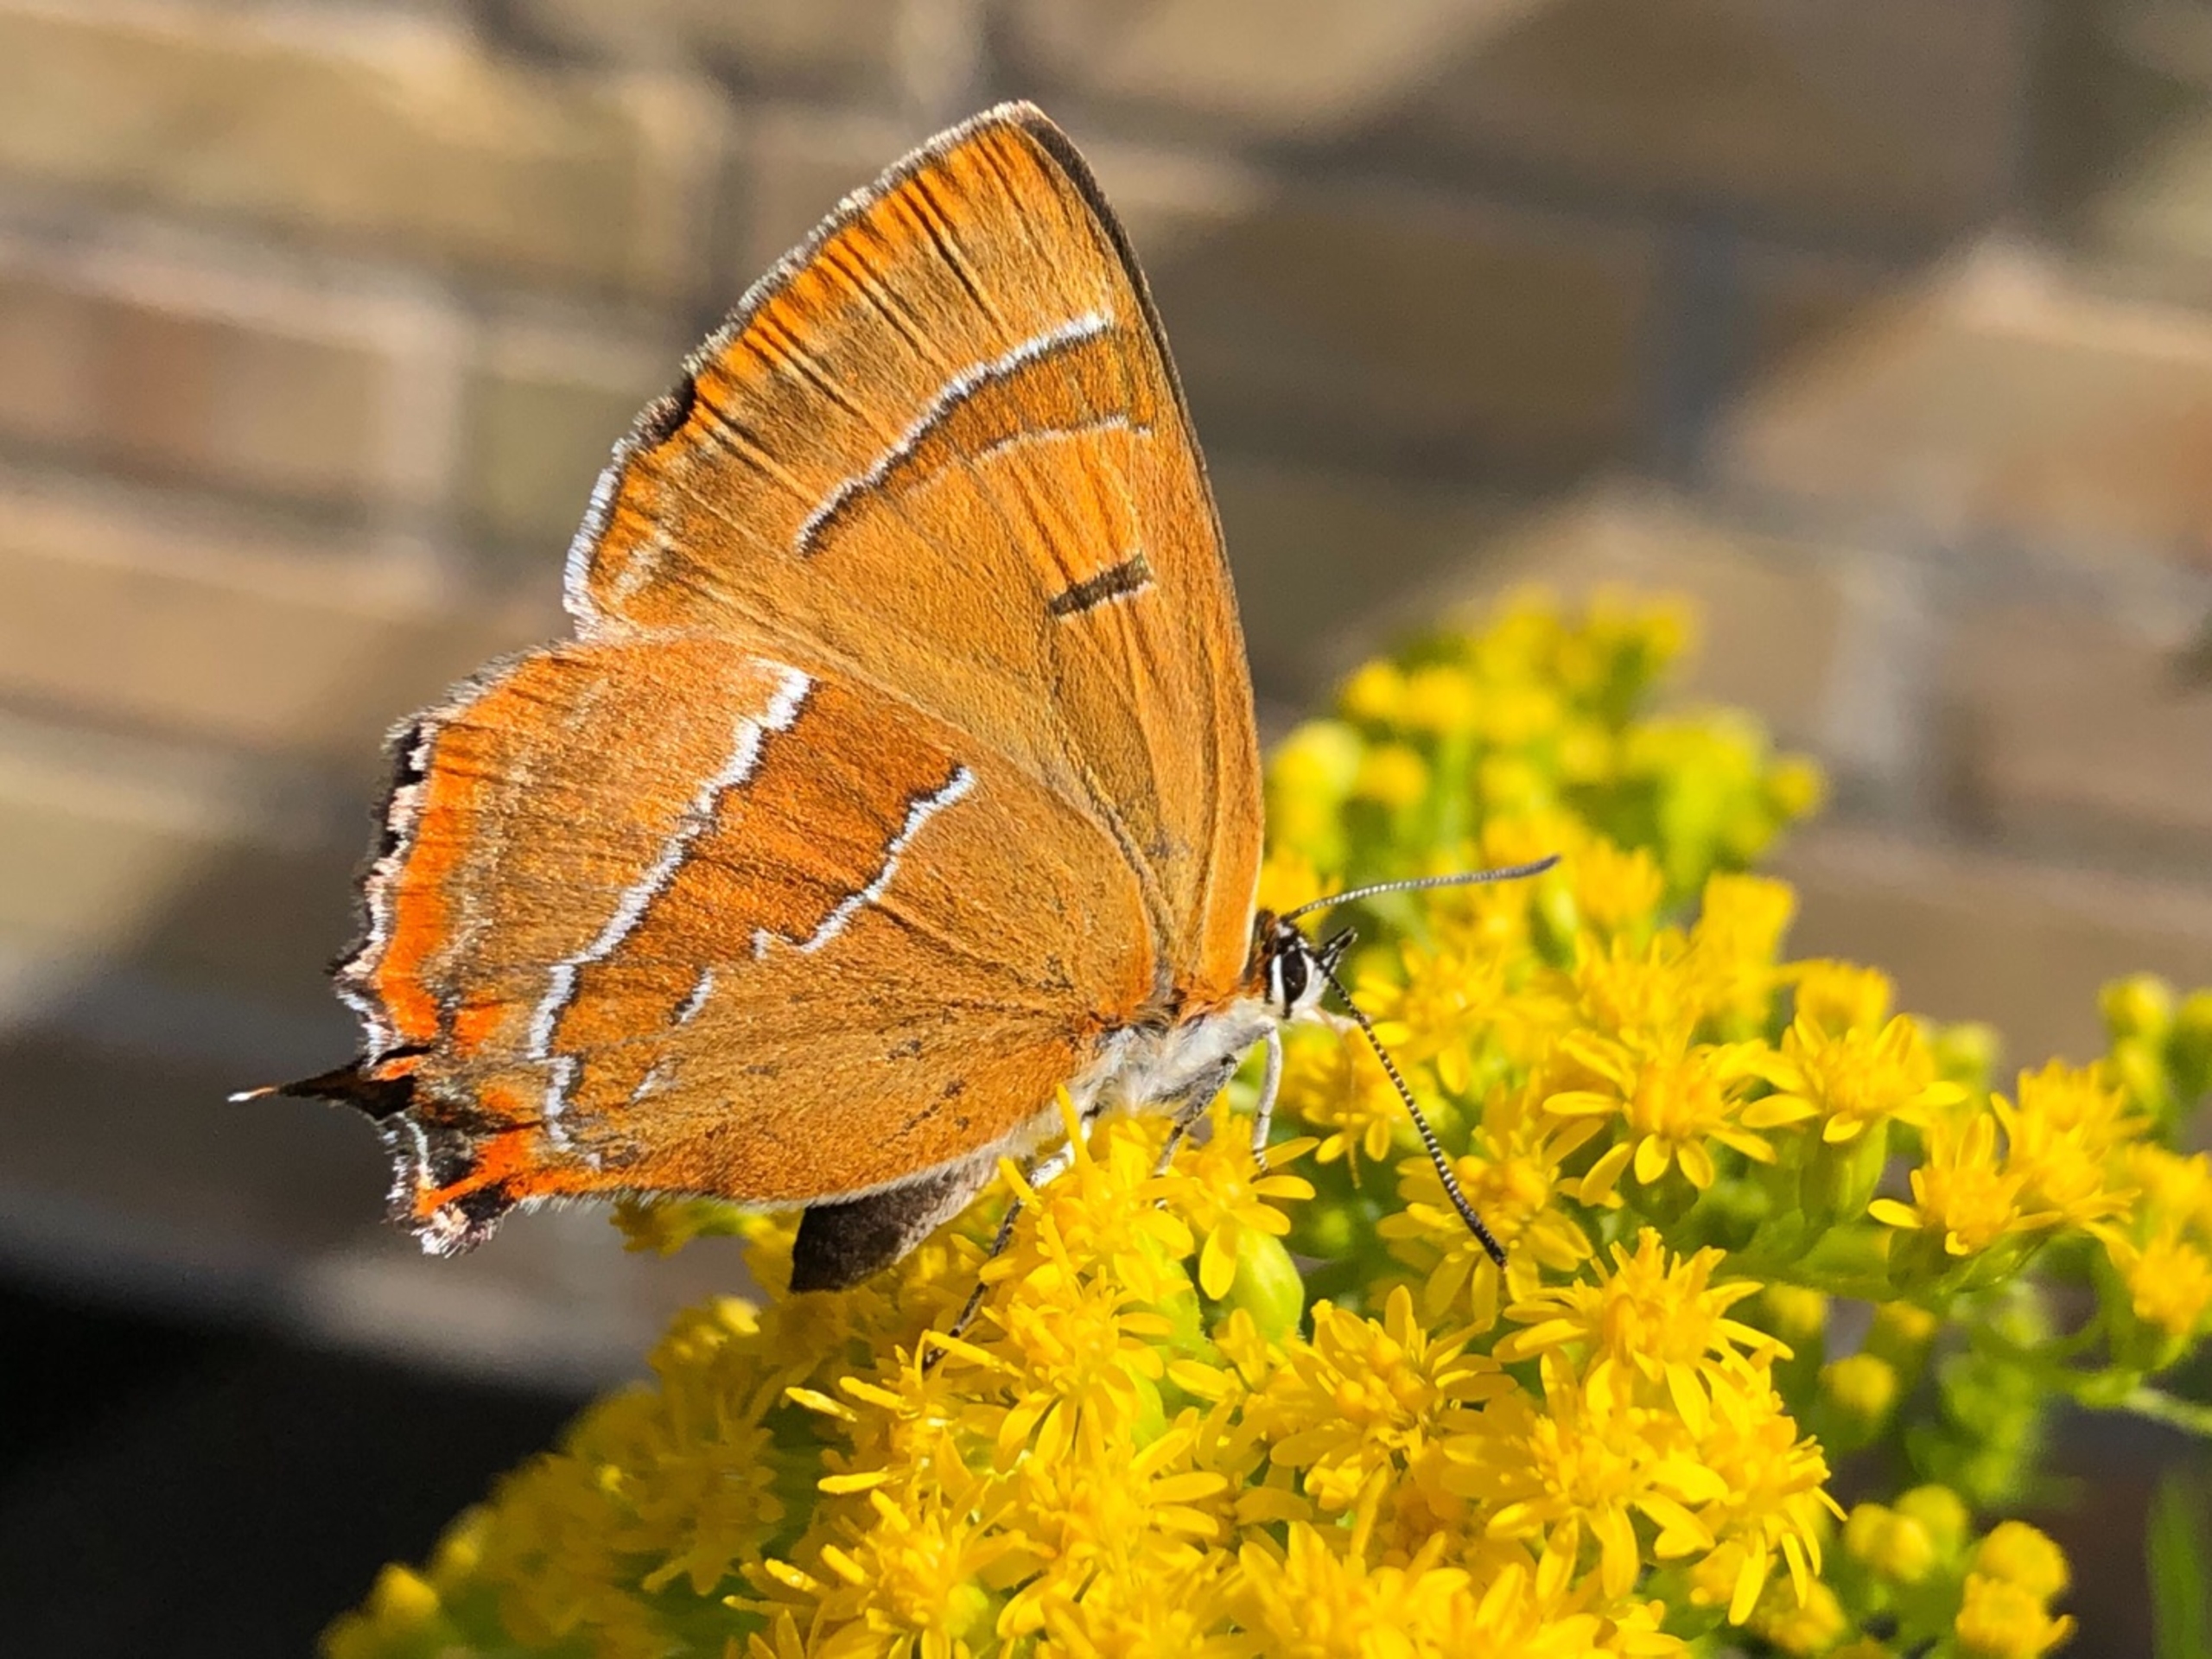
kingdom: Animalia
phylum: Arthropoda
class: Insecta
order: Lepidoptera
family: Lycaenidae
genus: Thecla
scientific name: Thecla betulae
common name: Guldhale
